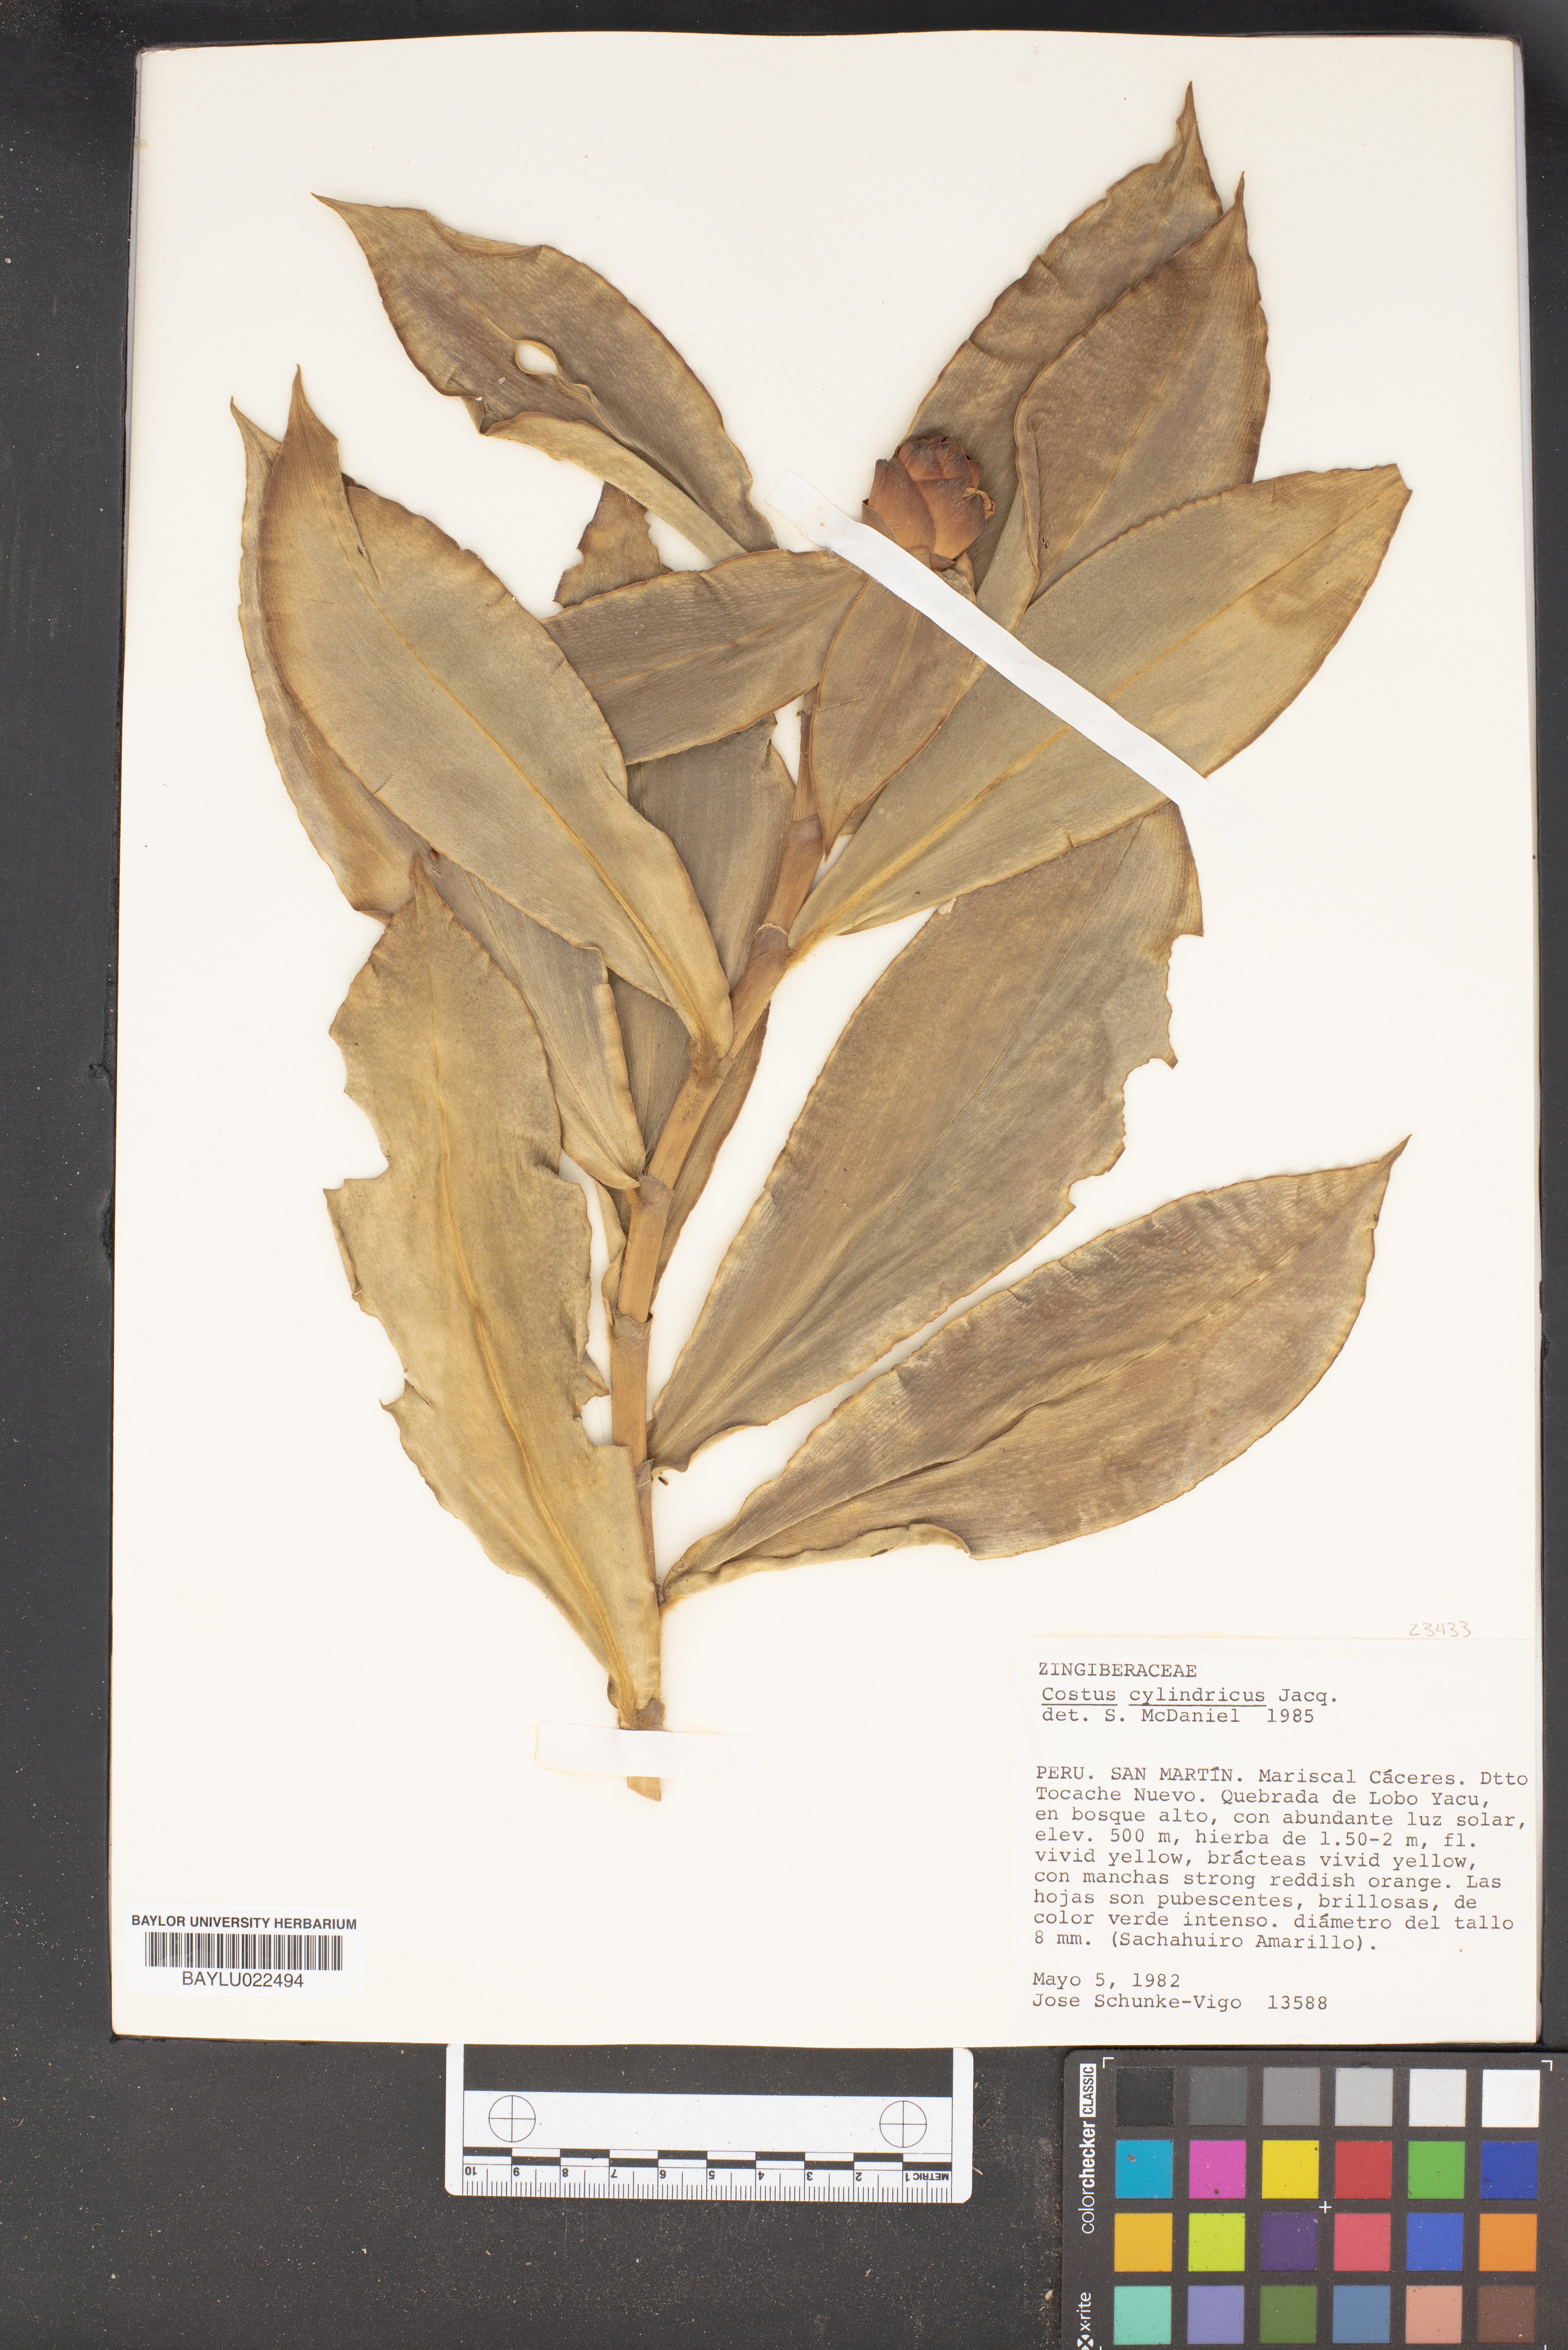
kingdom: Plantae
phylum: Tracheophyta
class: Liliopsida
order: Zingiberales
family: Costaceae
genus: Costus
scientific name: Costus spicatus
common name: Spiked spiral-flag
